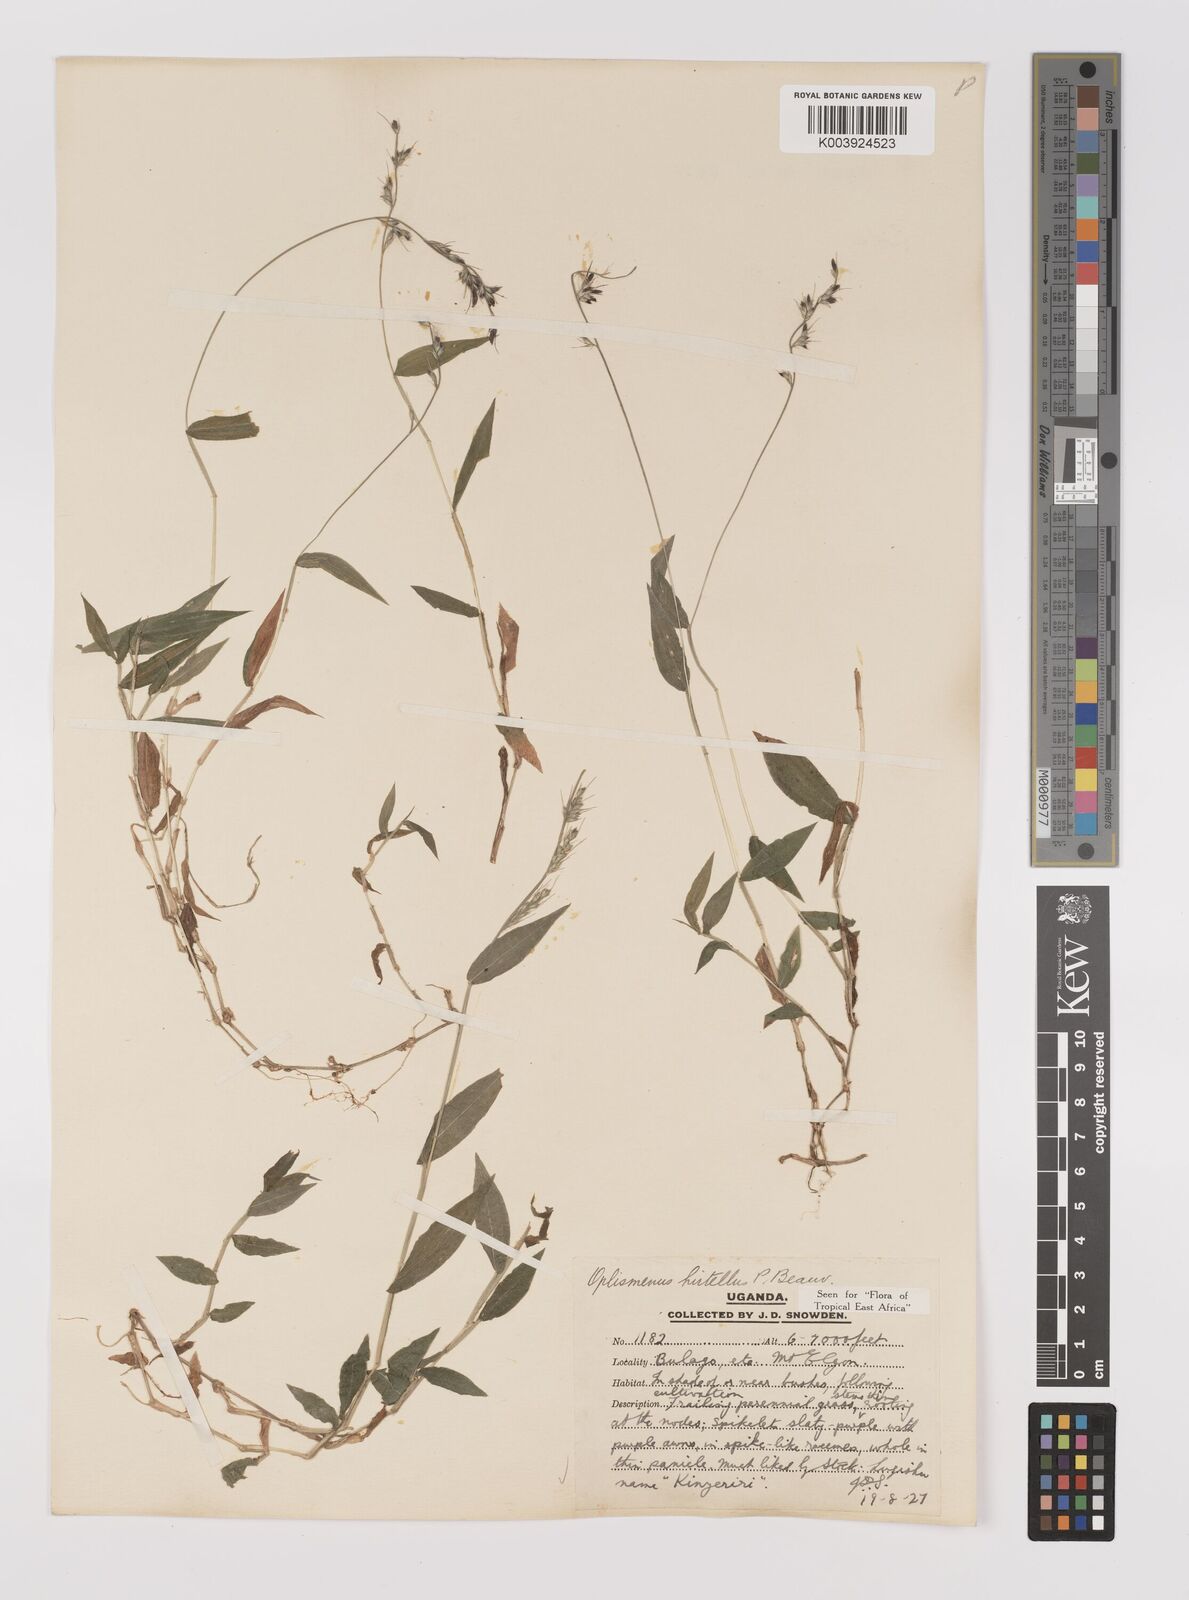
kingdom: Plantae
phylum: Tracheophyta
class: Liliopsida
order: Poales
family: Poaceae
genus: Oplismenus
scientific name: Oplismenus hirtellus
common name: Basketgrass
